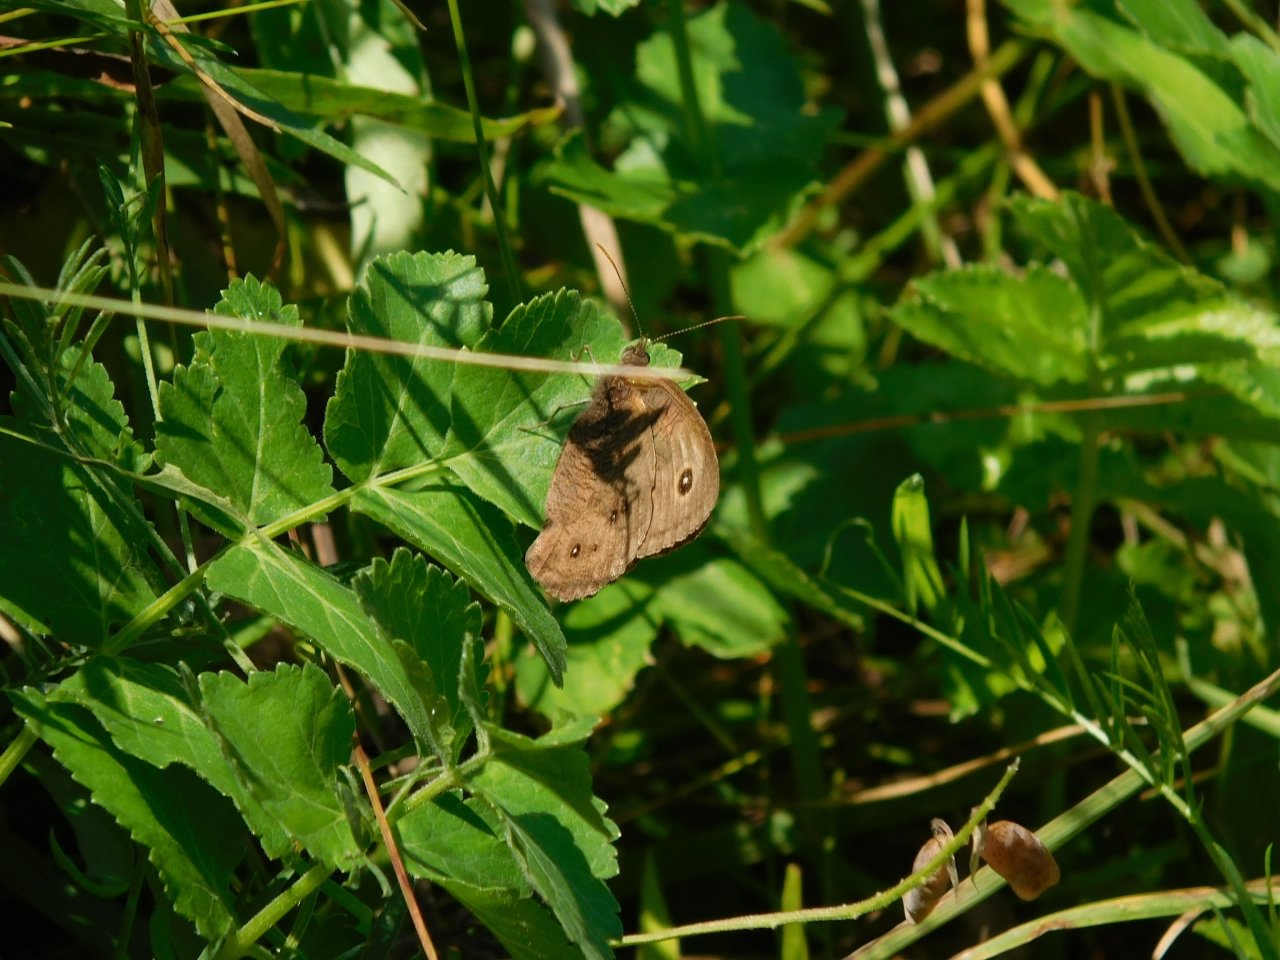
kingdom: Animalia
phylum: Arthropoda
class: Insecta
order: Lepidoptera
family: Nymphalidae
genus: Cercyonis
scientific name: Cercyonis pegala
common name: Common Wood-Nymph
